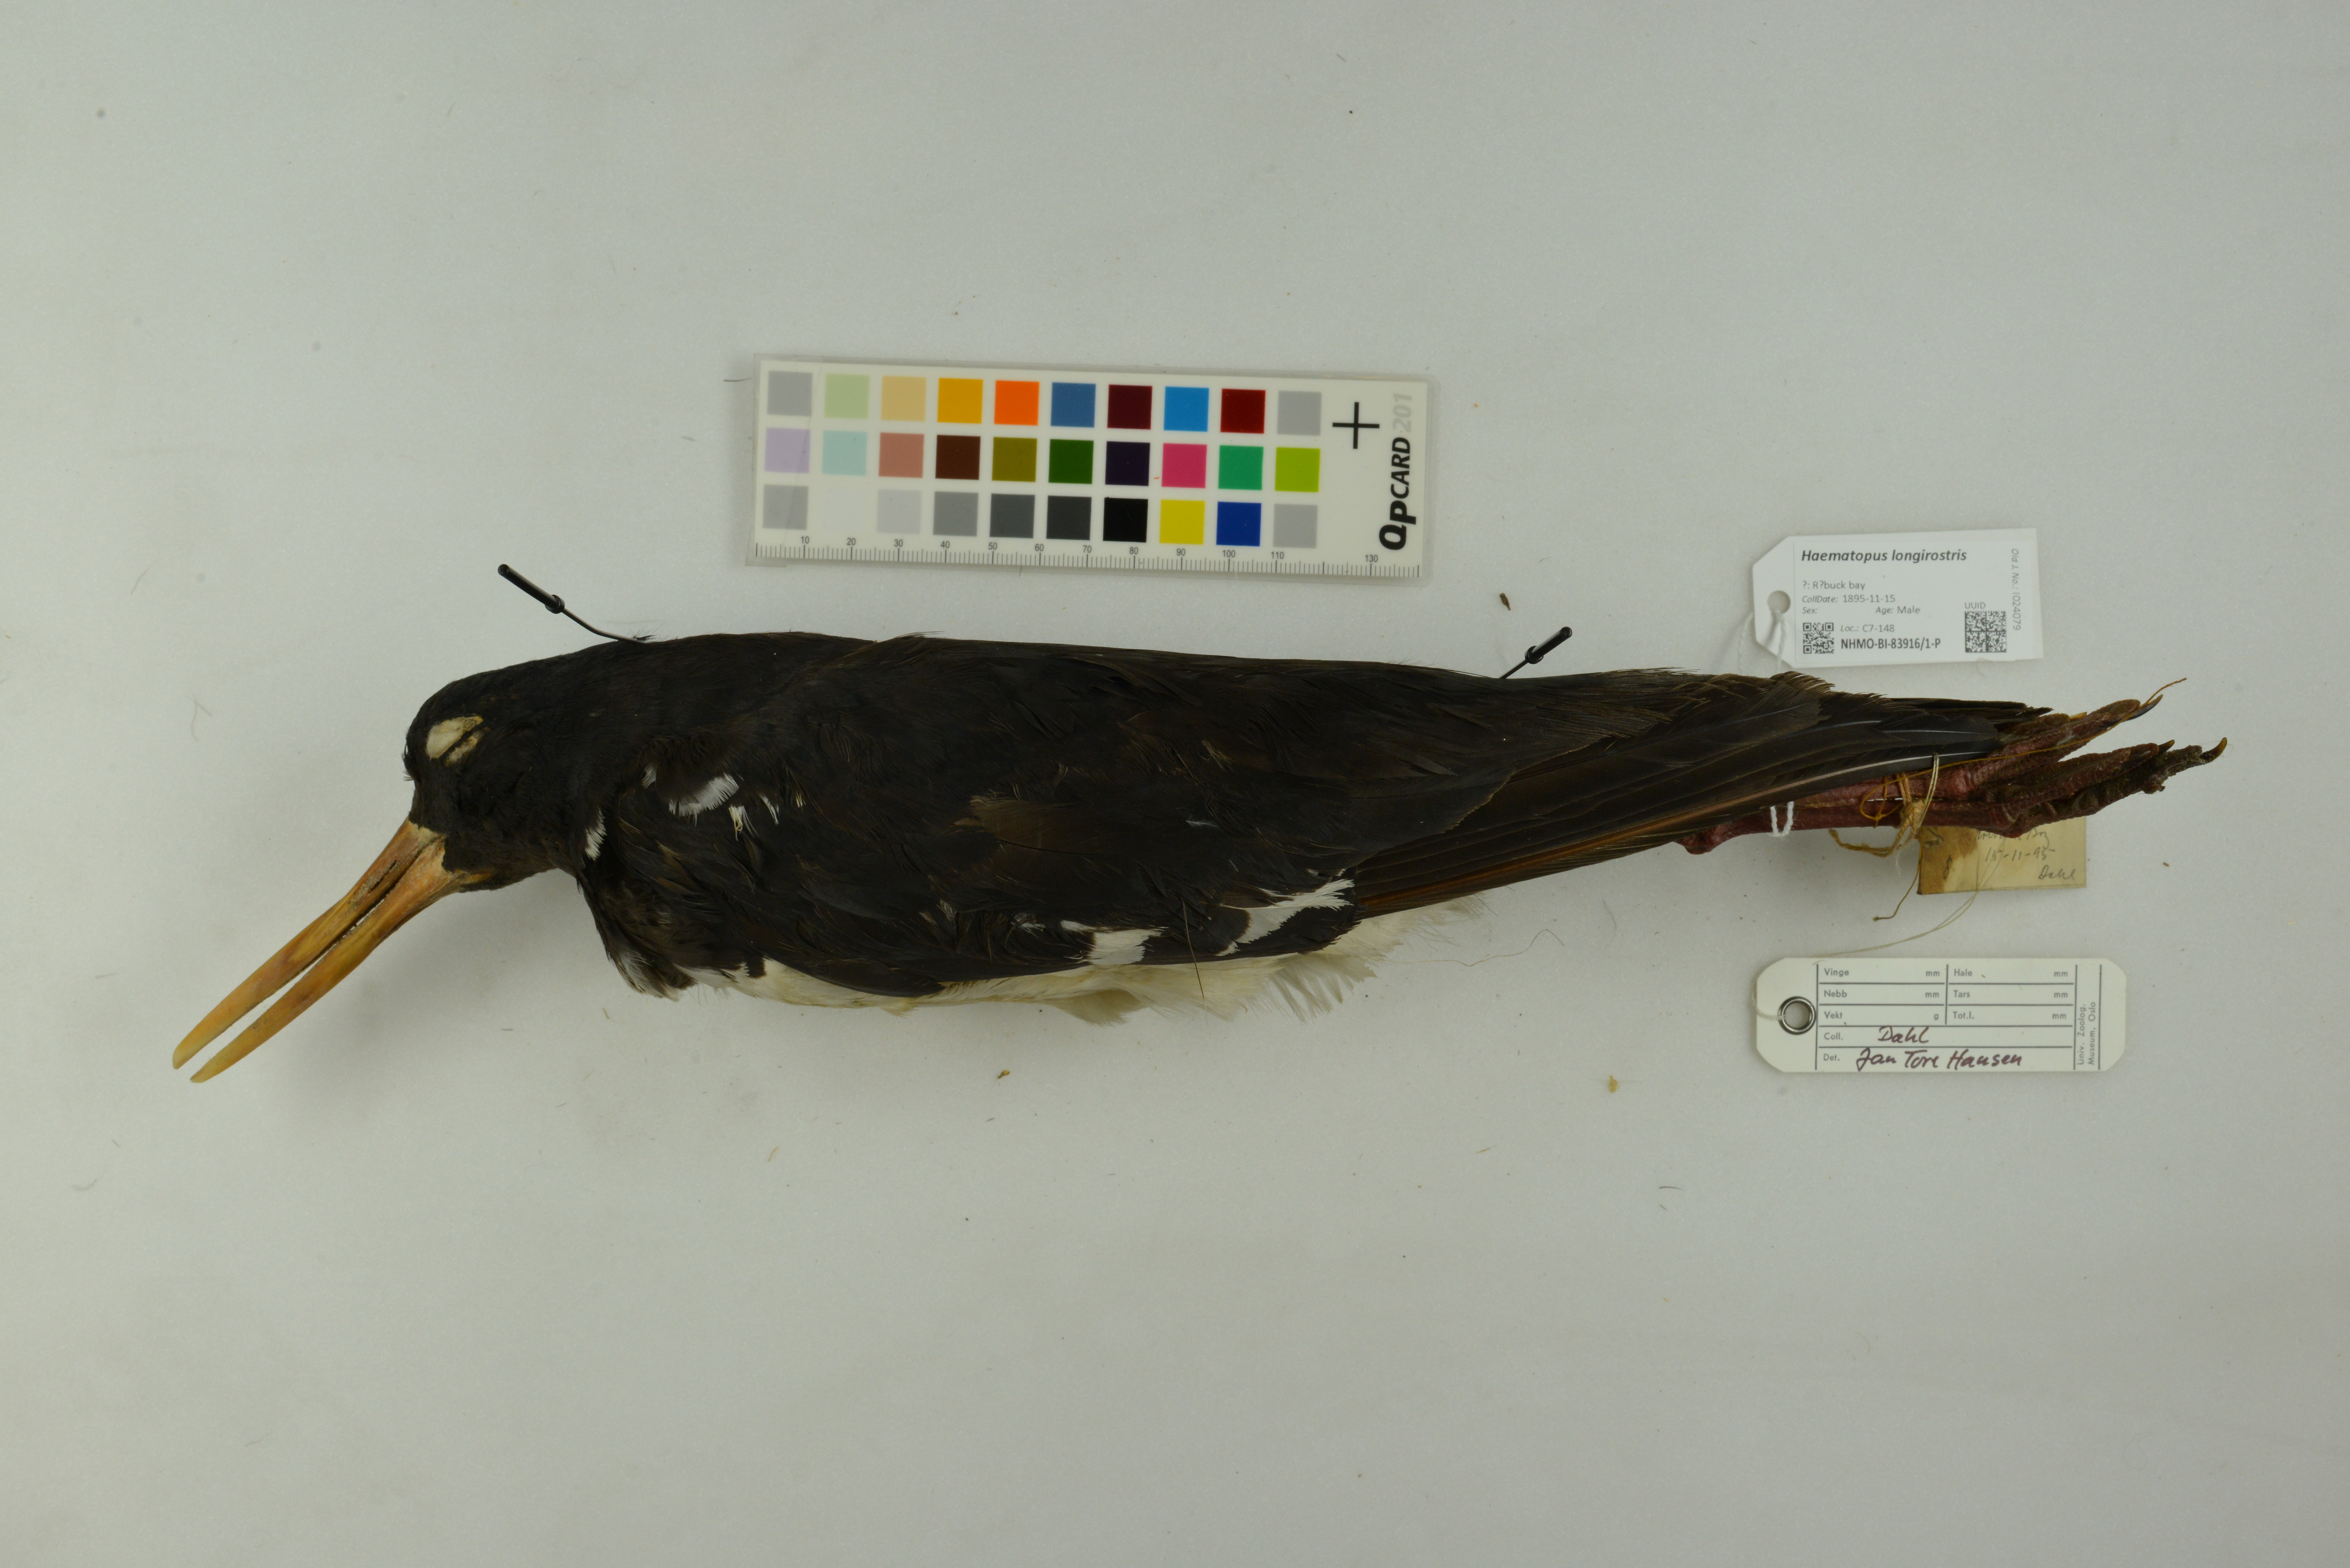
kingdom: Animalia
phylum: Chordata
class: Aves
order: Charadriiformes
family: Haematopodidae
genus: Haematopus
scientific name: Haematopus longirostris
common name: Pied oystercatcher
